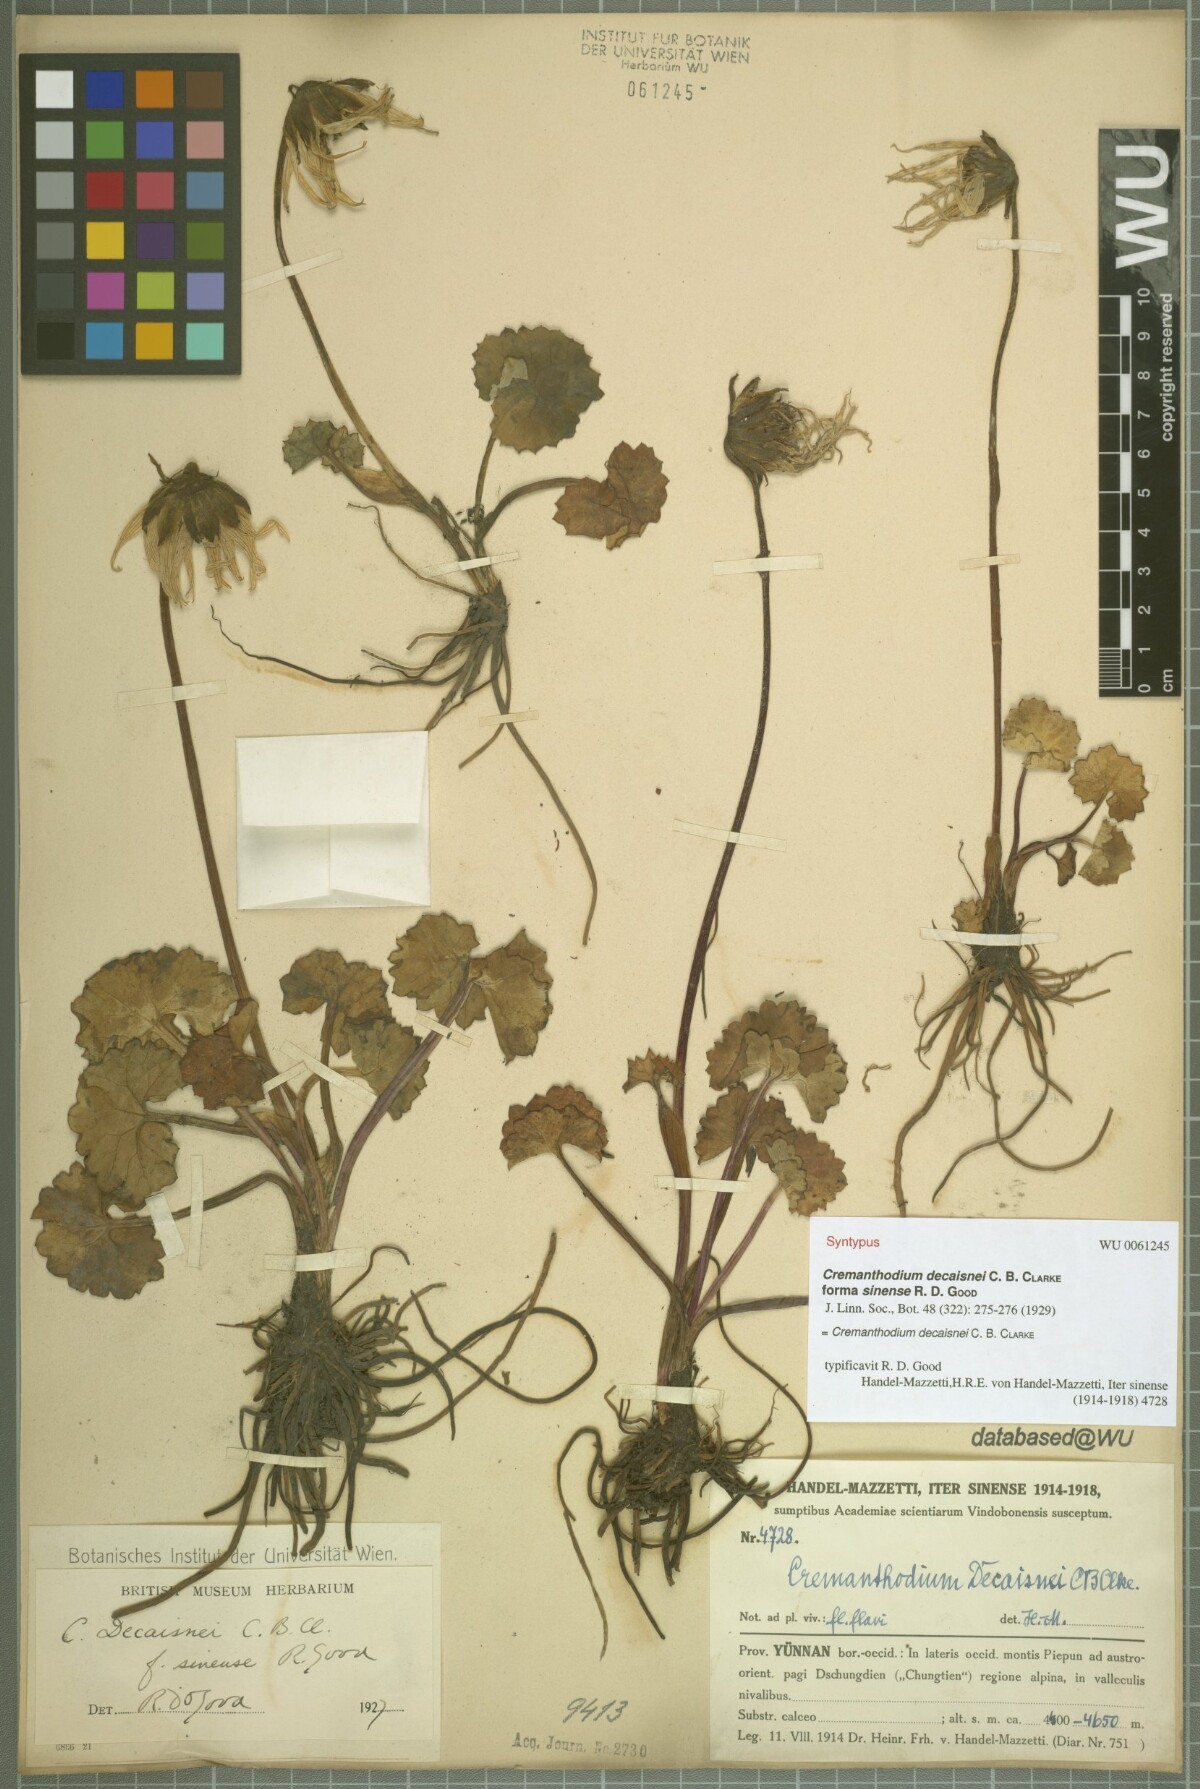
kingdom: Plantae
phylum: Tracheophyta
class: Magnoliopsida
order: Asterales
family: Asteraceae
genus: Cremanthodium
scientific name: Cremanthodium decaisnei
